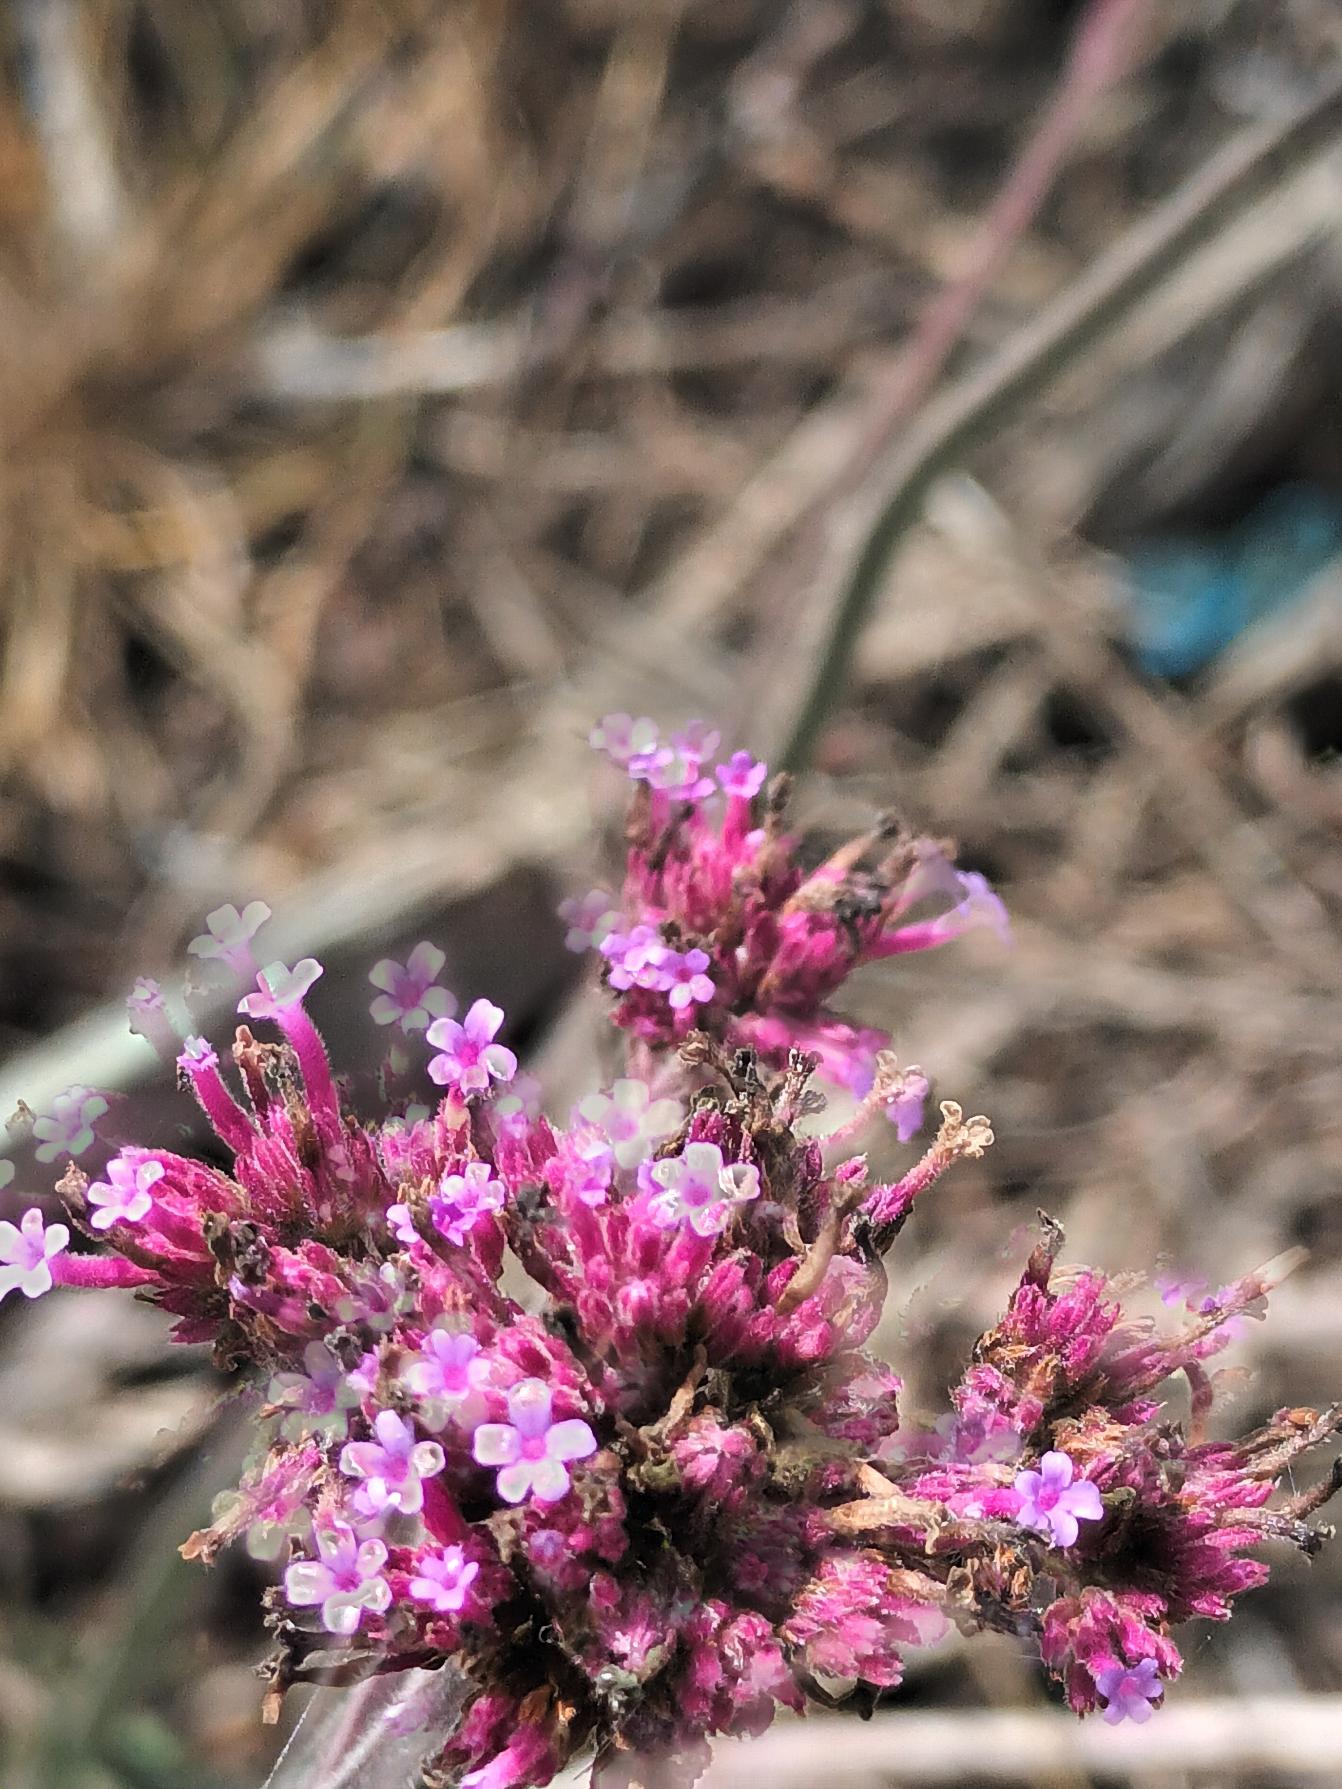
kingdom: Plantae
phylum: Tracheophyta
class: Magnoliopsida
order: Lamiales
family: Verbenaceae
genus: Verbena
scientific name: Verbena bonariensis
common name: Kæmpe-jernurt
